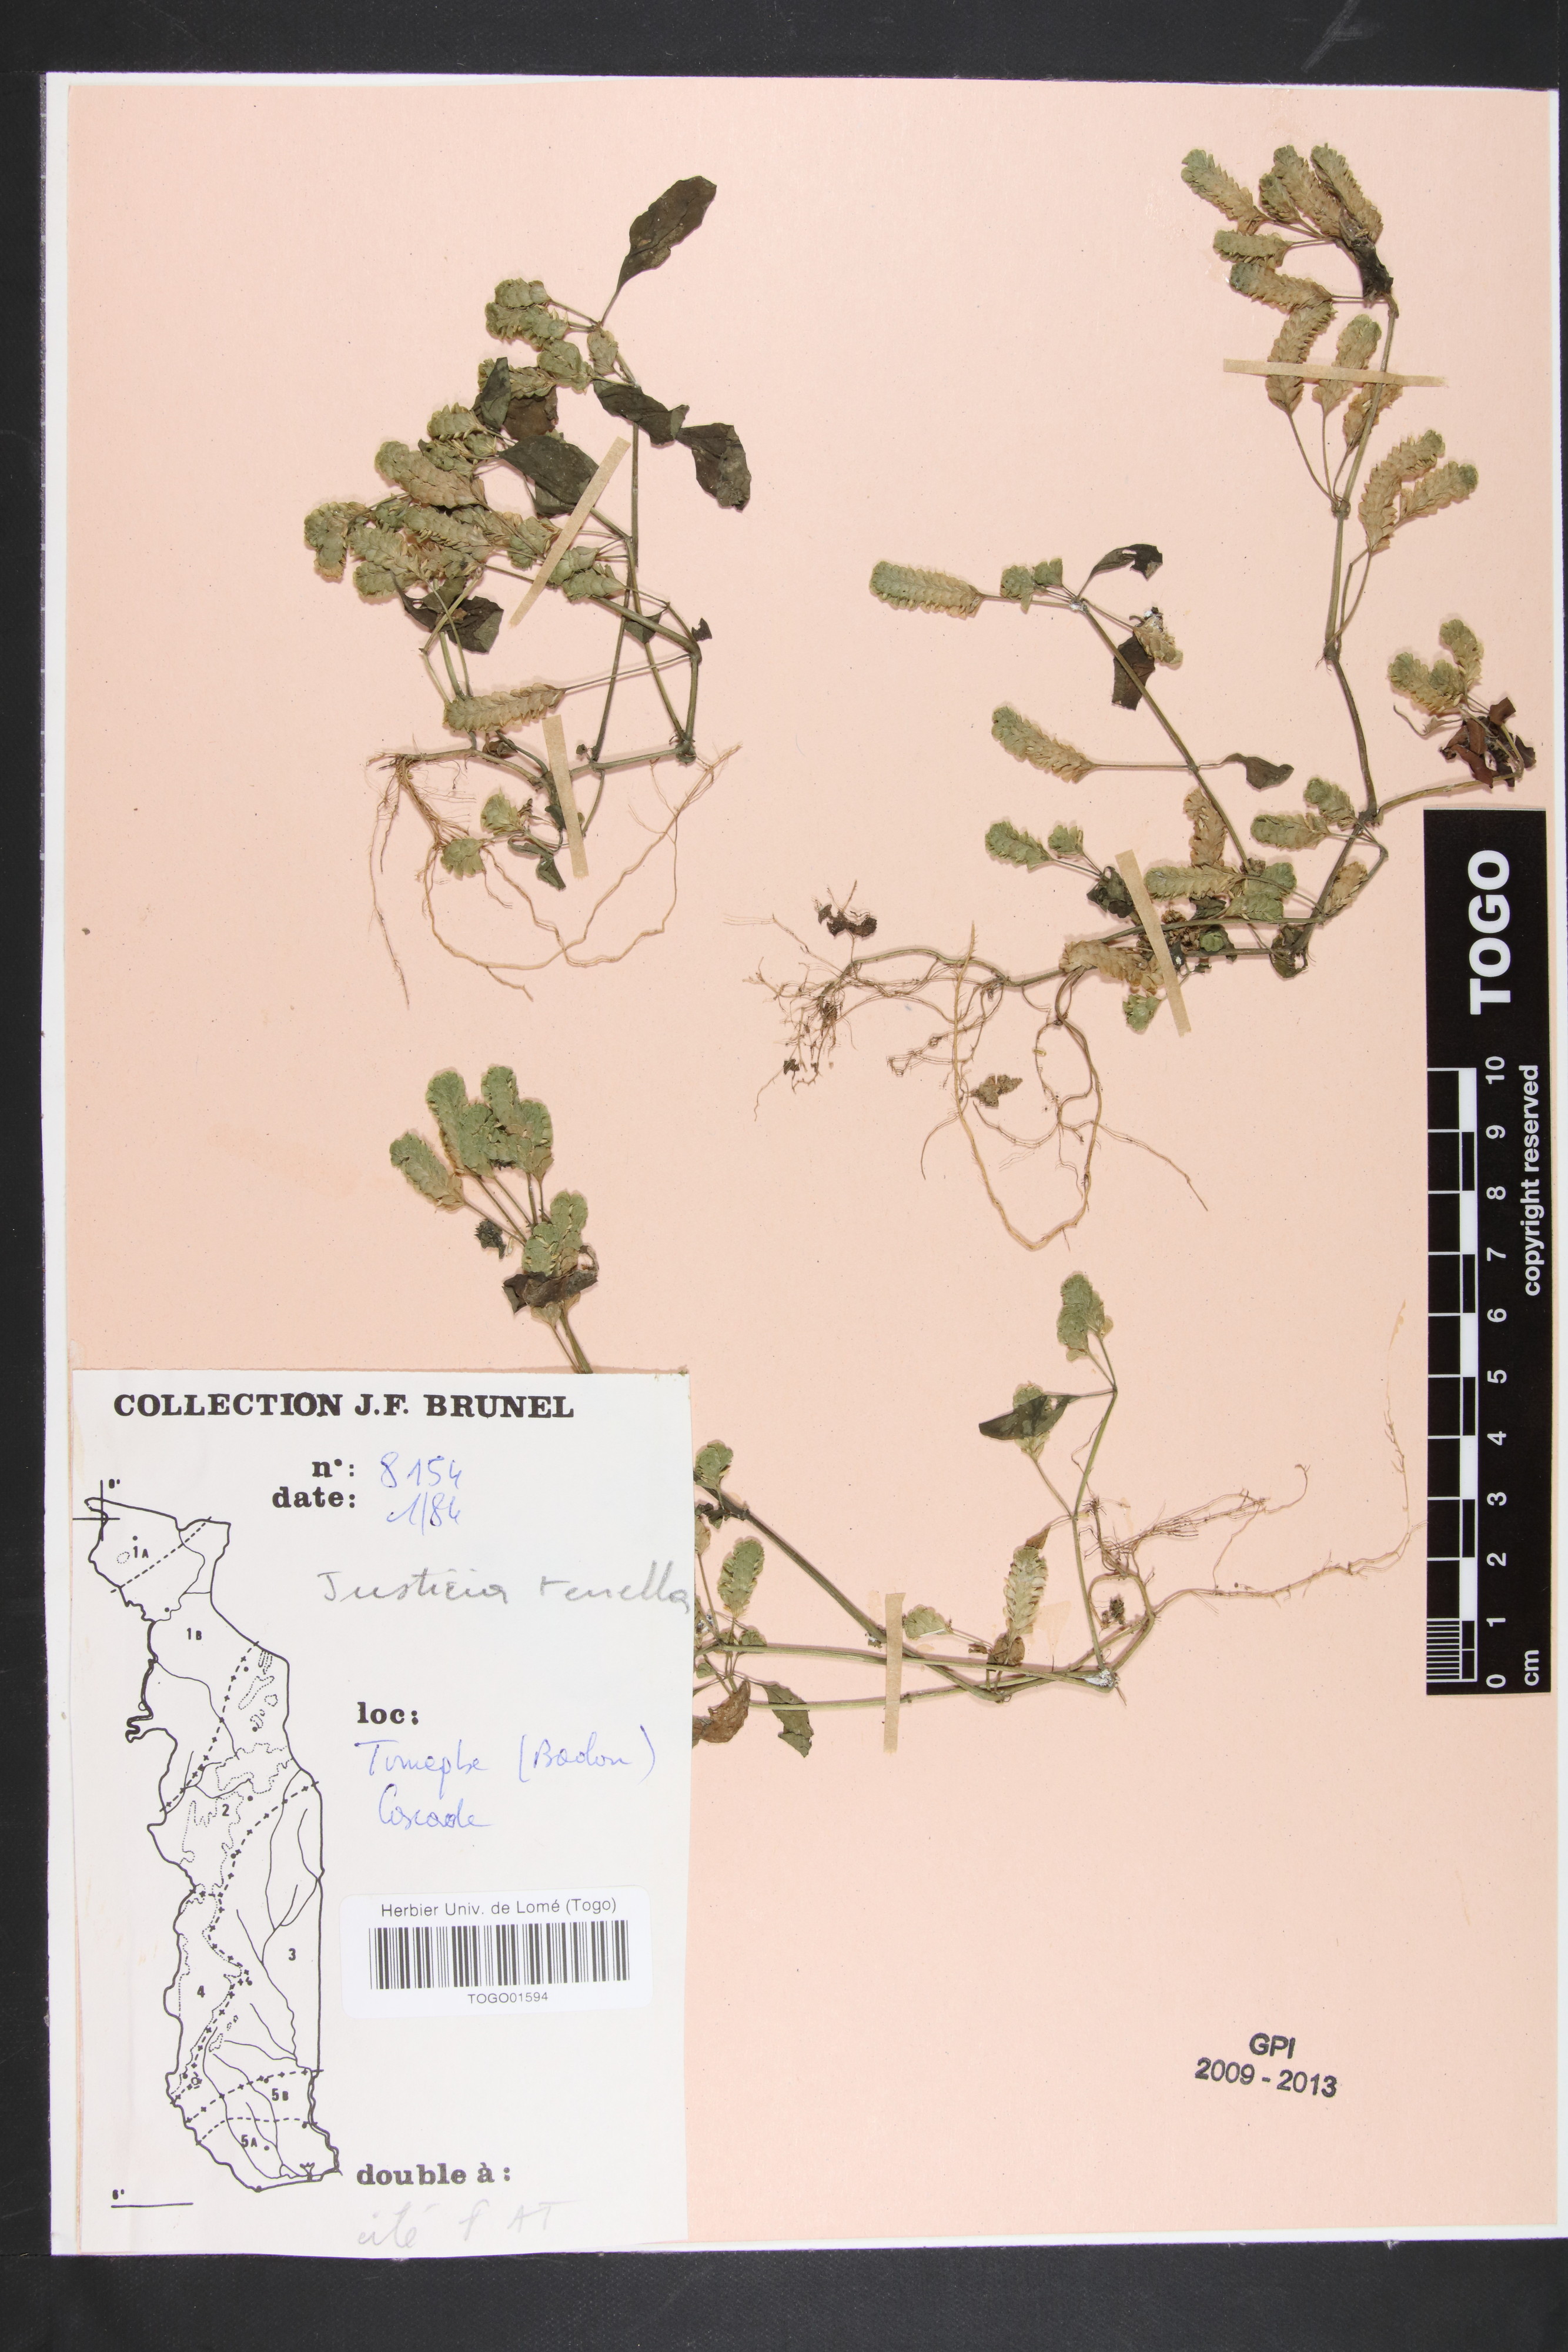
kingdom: Plantae
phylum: Tracheophyta
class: Magnoliopsida
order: Lamiales
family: Acanthaceae
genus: Anisostachya
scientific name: Anisostachya tenella
